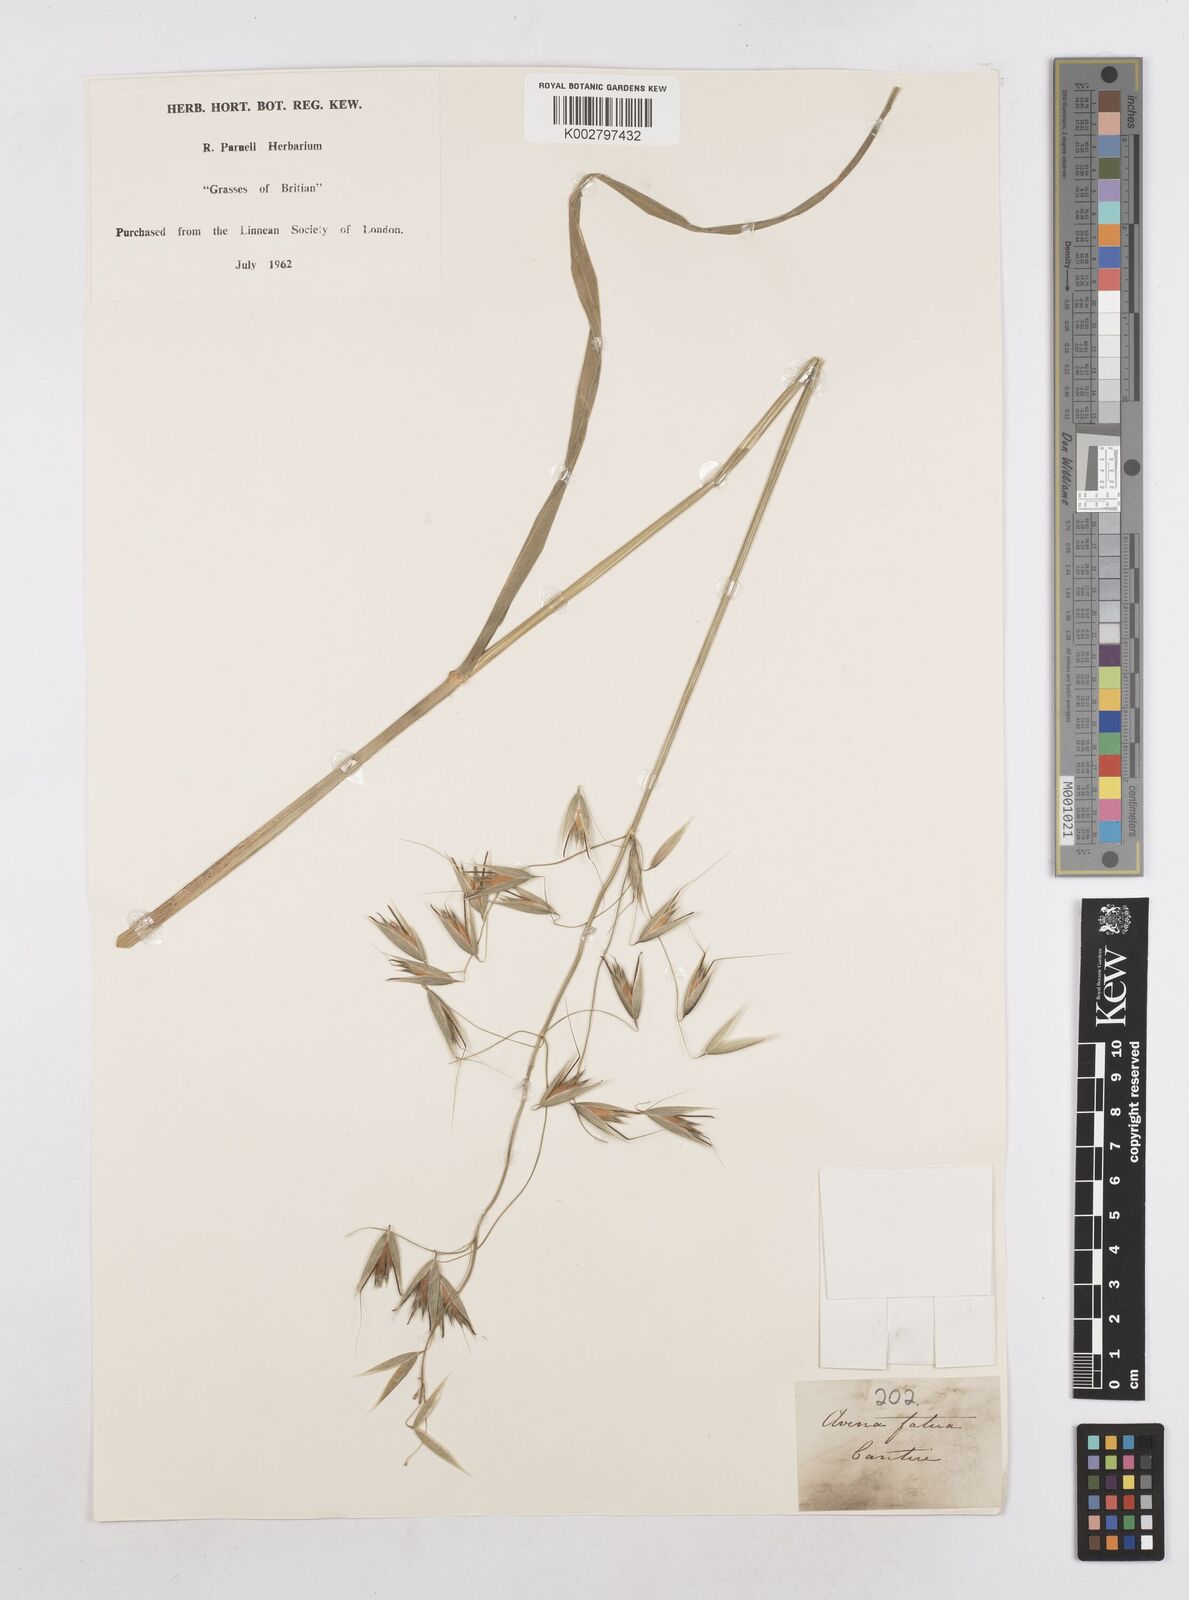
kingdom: Plantae
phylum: Tracheophyta
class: Liliopsida
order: Poales
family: Poaceae
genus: Avena
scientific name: Avena fatua
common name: Wild oat
